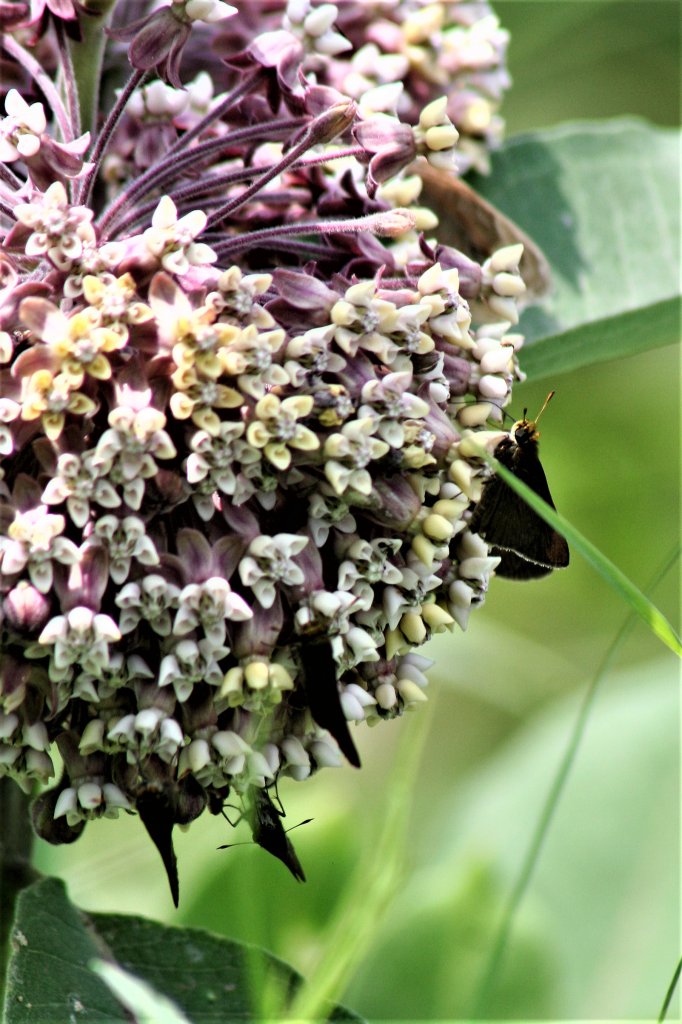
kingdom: Animalia
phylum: Arthropoda
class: Insecta
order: Lepidoptera
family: Hesperiidae
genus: Euphyes
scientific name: Euphyes vestris
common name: Dun Skipper
